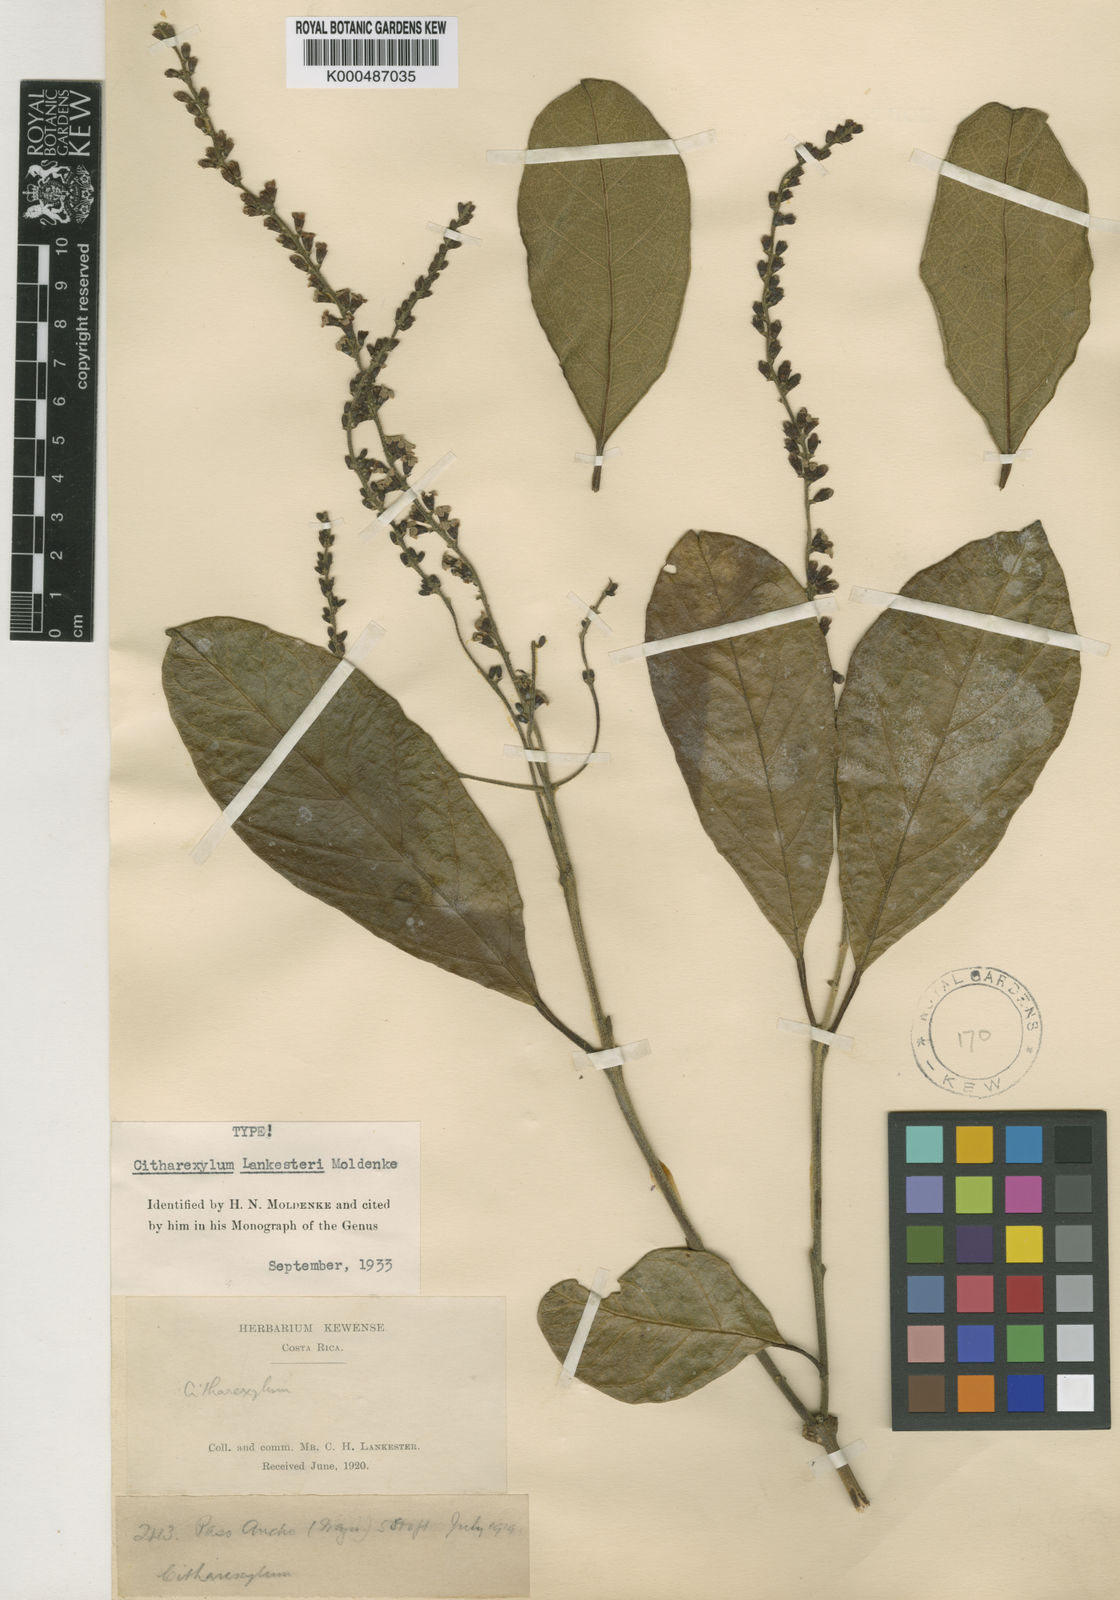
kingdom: Plantae
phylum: Tracheophyta
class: Magnoliopsida
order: Lamiales
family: Verbenaceae
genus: Citharexylum
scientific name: Citharexylum mocinoi
